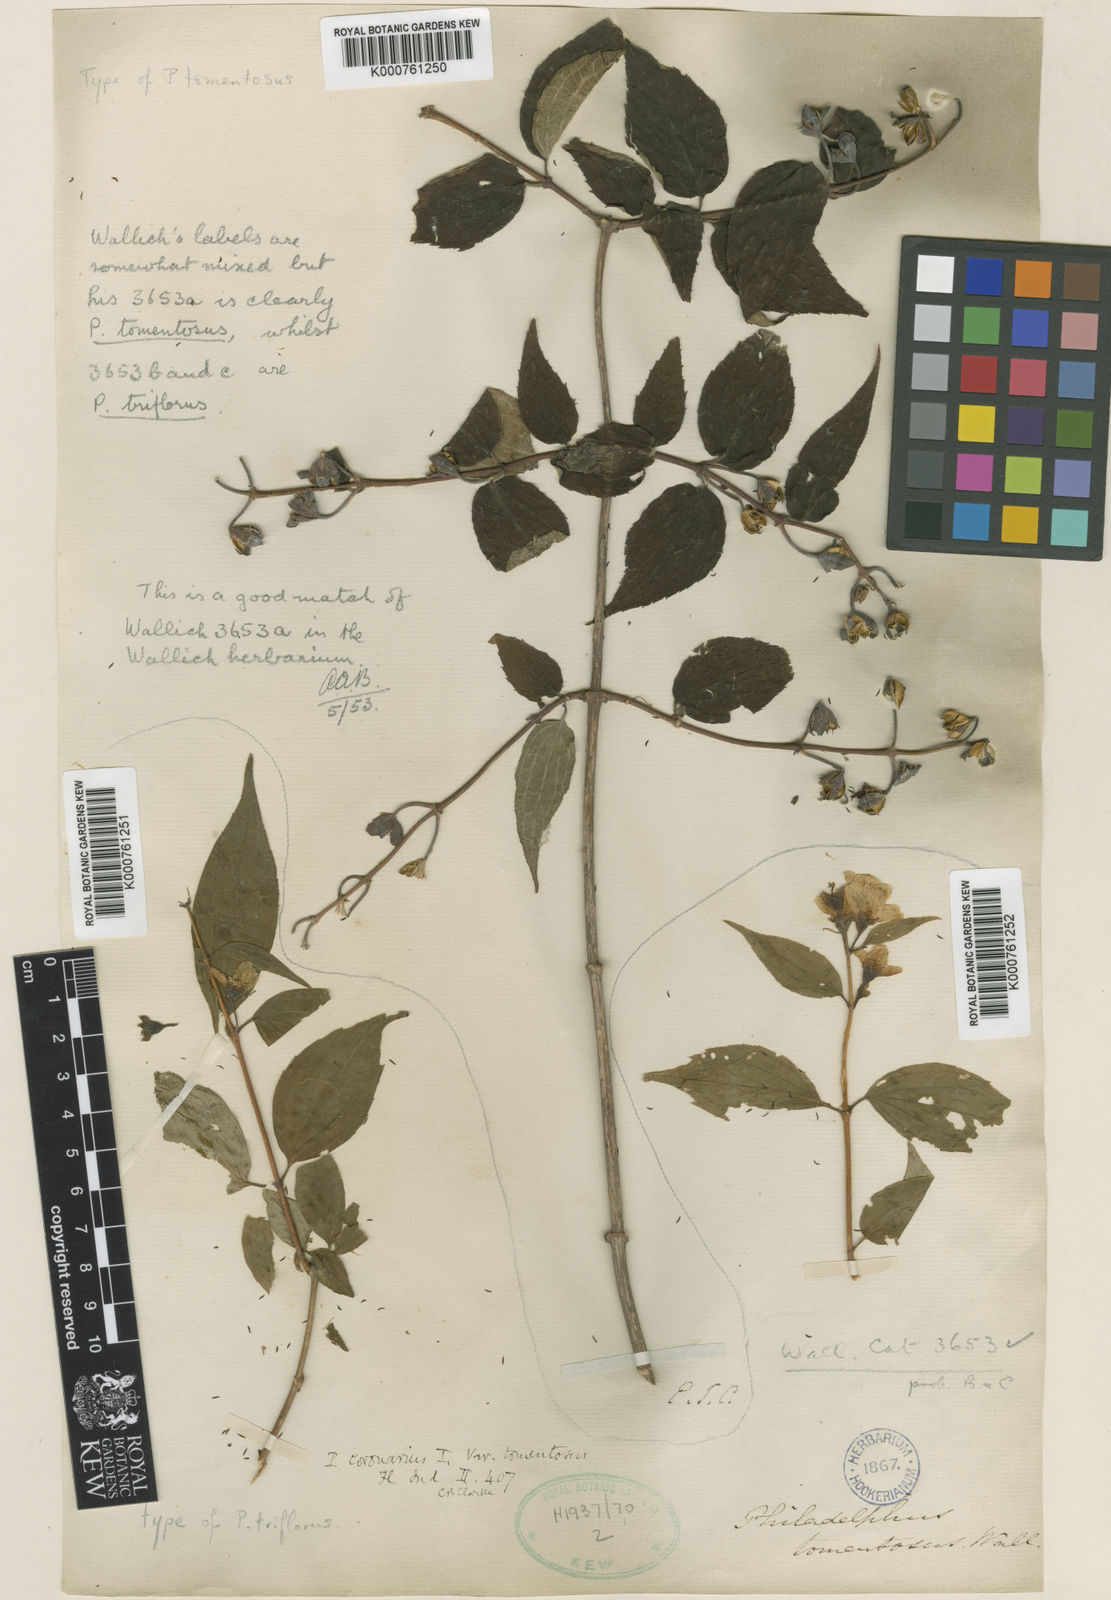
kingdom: Plantae
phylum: Tracheophyta
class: Magnoliopsida
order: Cornales
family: Hydrangeaceae
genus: Philadelphus
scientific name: Philadelphus
